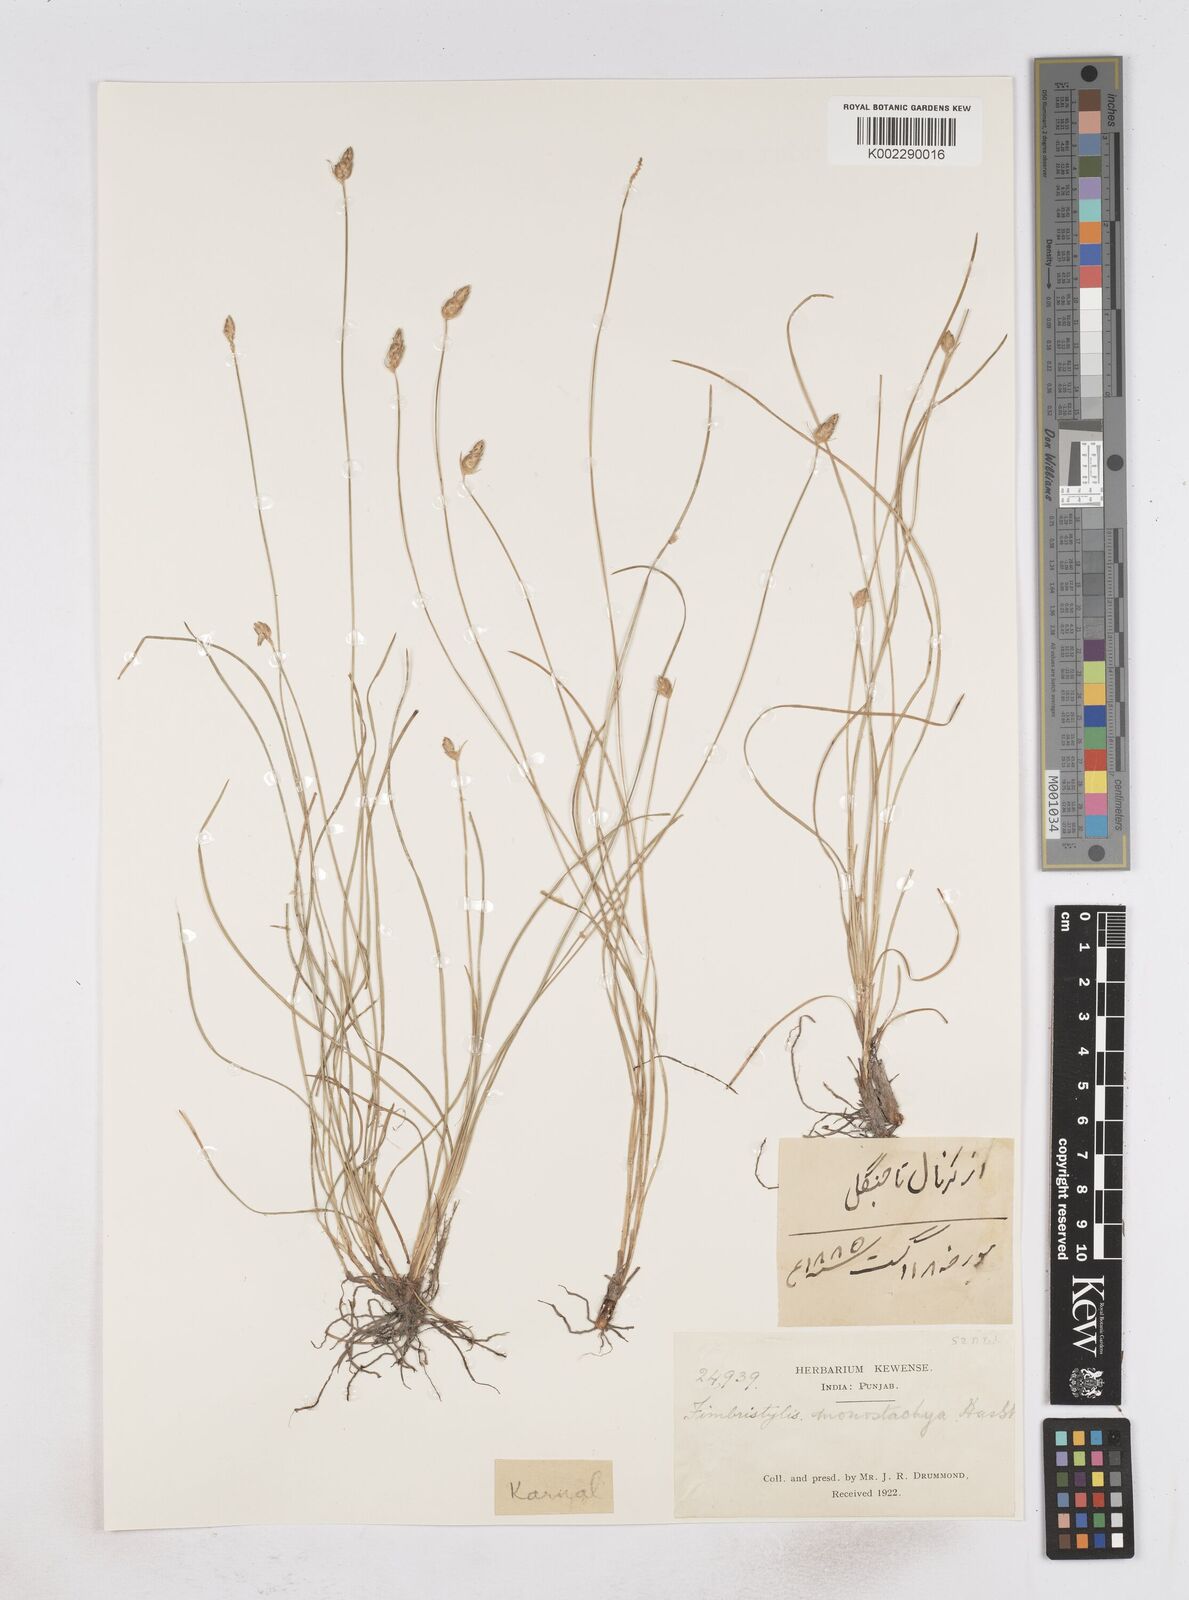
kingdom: Plantae
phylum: Tracheophyta
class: Liliopsida
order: Poales
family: Cyperaceae
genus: Abildgaardia
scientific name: Abildgaardia ovata
